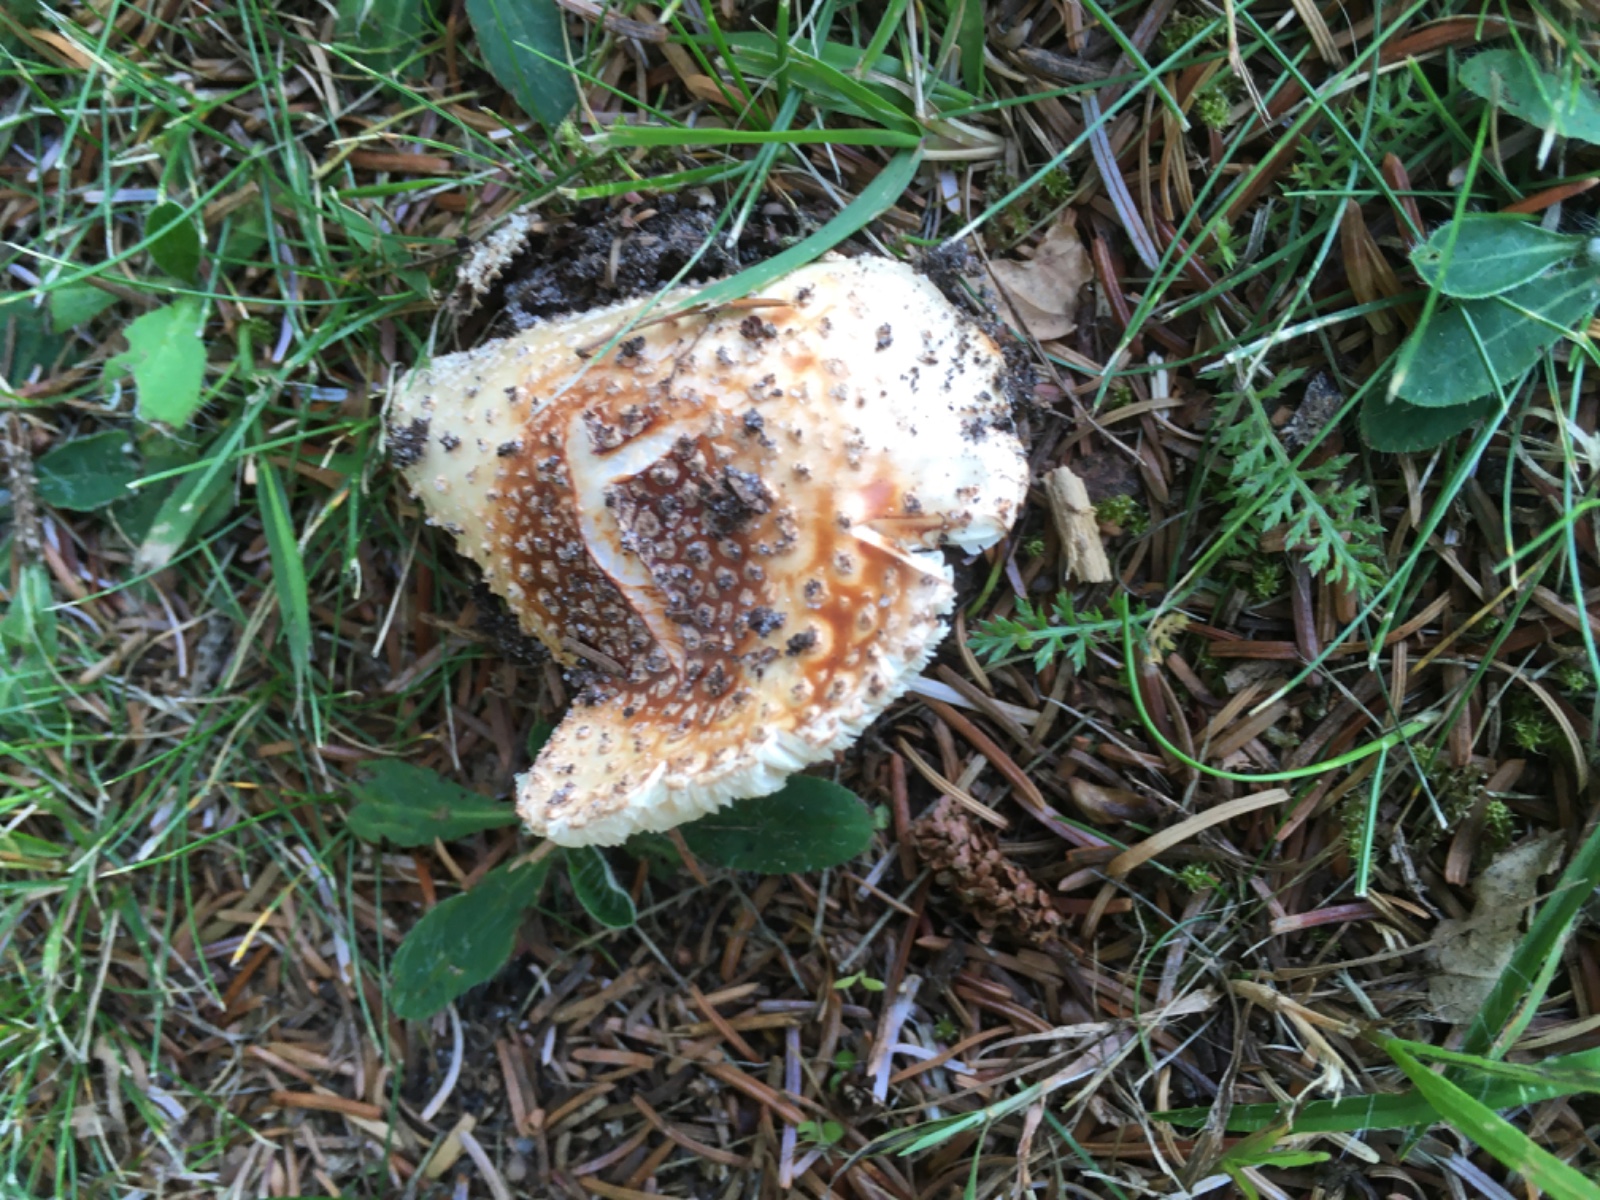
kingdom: Fungi
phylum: Basidiomycota
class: Agaricomycetes
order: Agaricales
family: Amanitaceae
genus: Amanita
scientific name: Amanita rubescens
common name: rødmende fluesvamp
